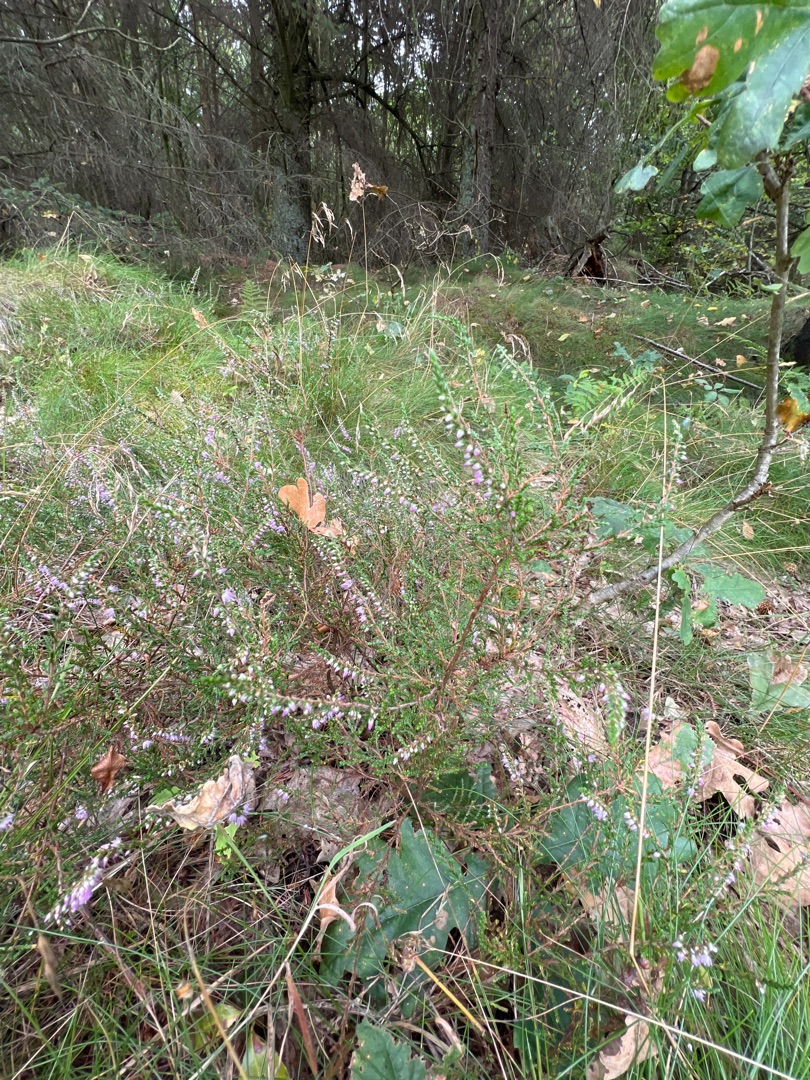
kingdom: Plantae
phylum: Tracheophyta
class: Magnoliopsida
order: Ericales
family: Ericaceae
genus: Calluna
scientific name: Calluna vulgaris
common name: Hedelyng
